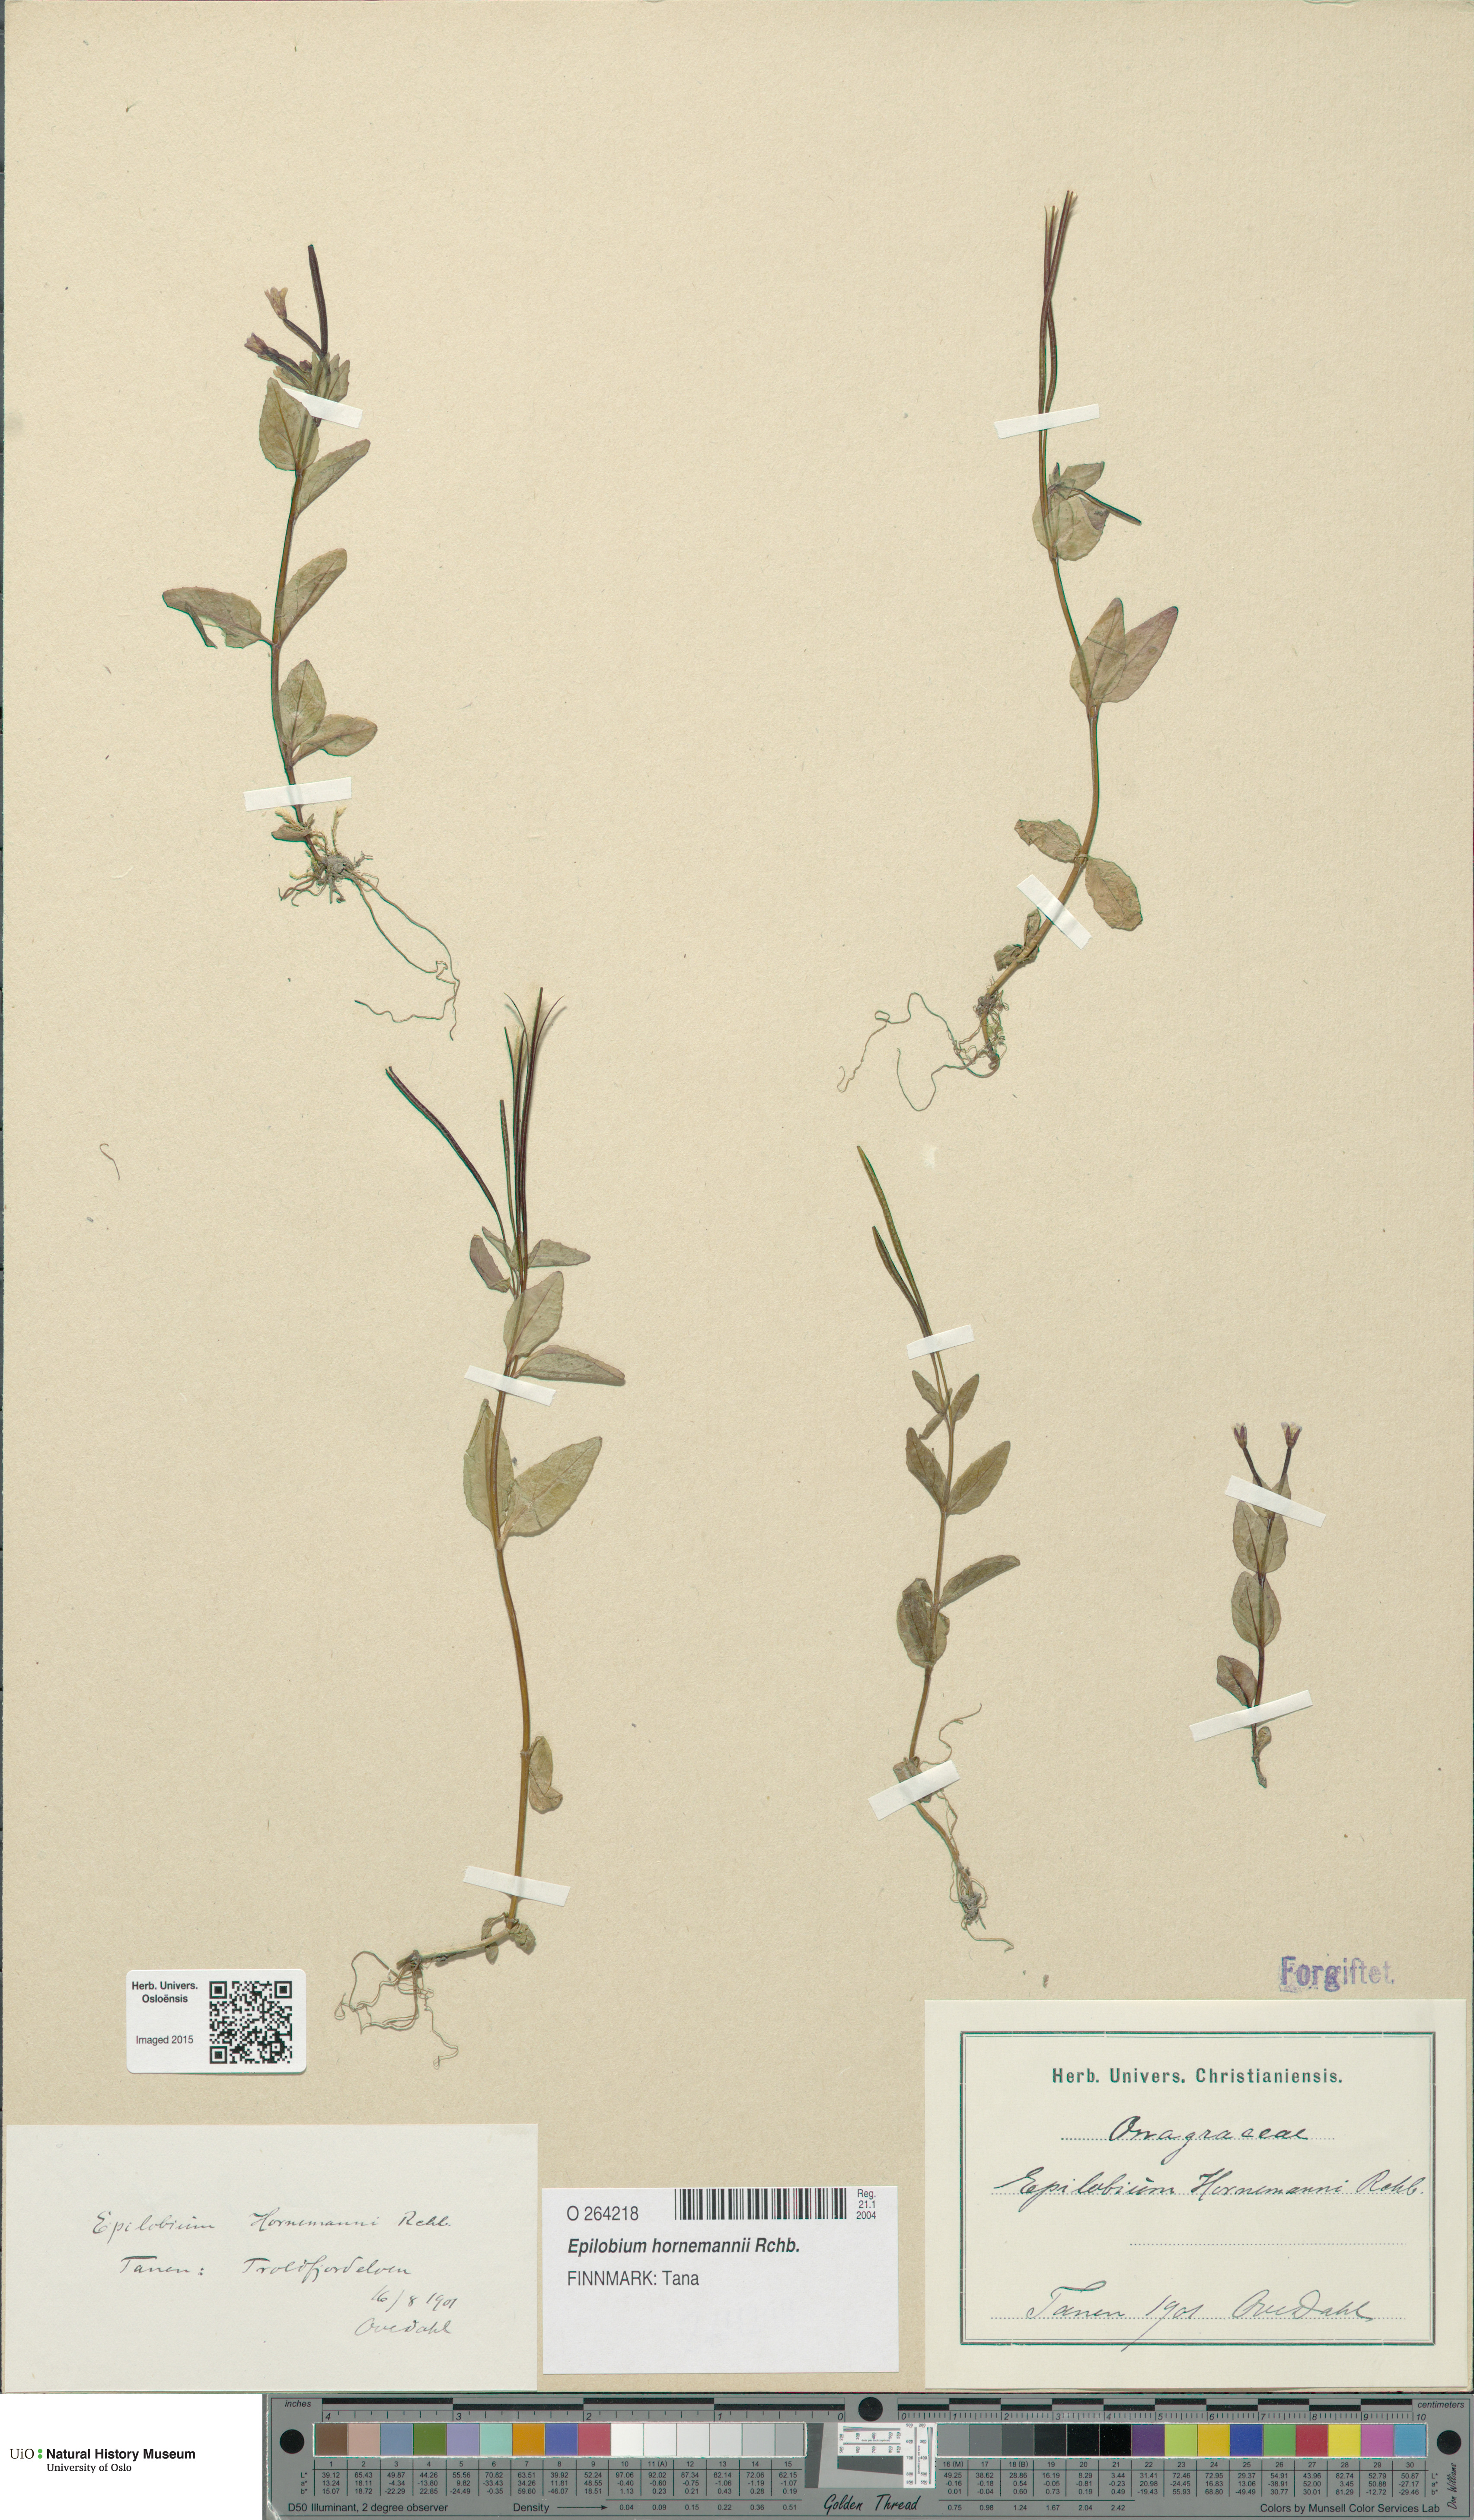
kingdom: Plantae
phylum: Tracheophyta
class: Magnoliopsida
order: Myrtales
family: Onagraceae
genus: Epilobium
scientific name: Epilobium hornemannii
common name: Hornemann's willowherb
